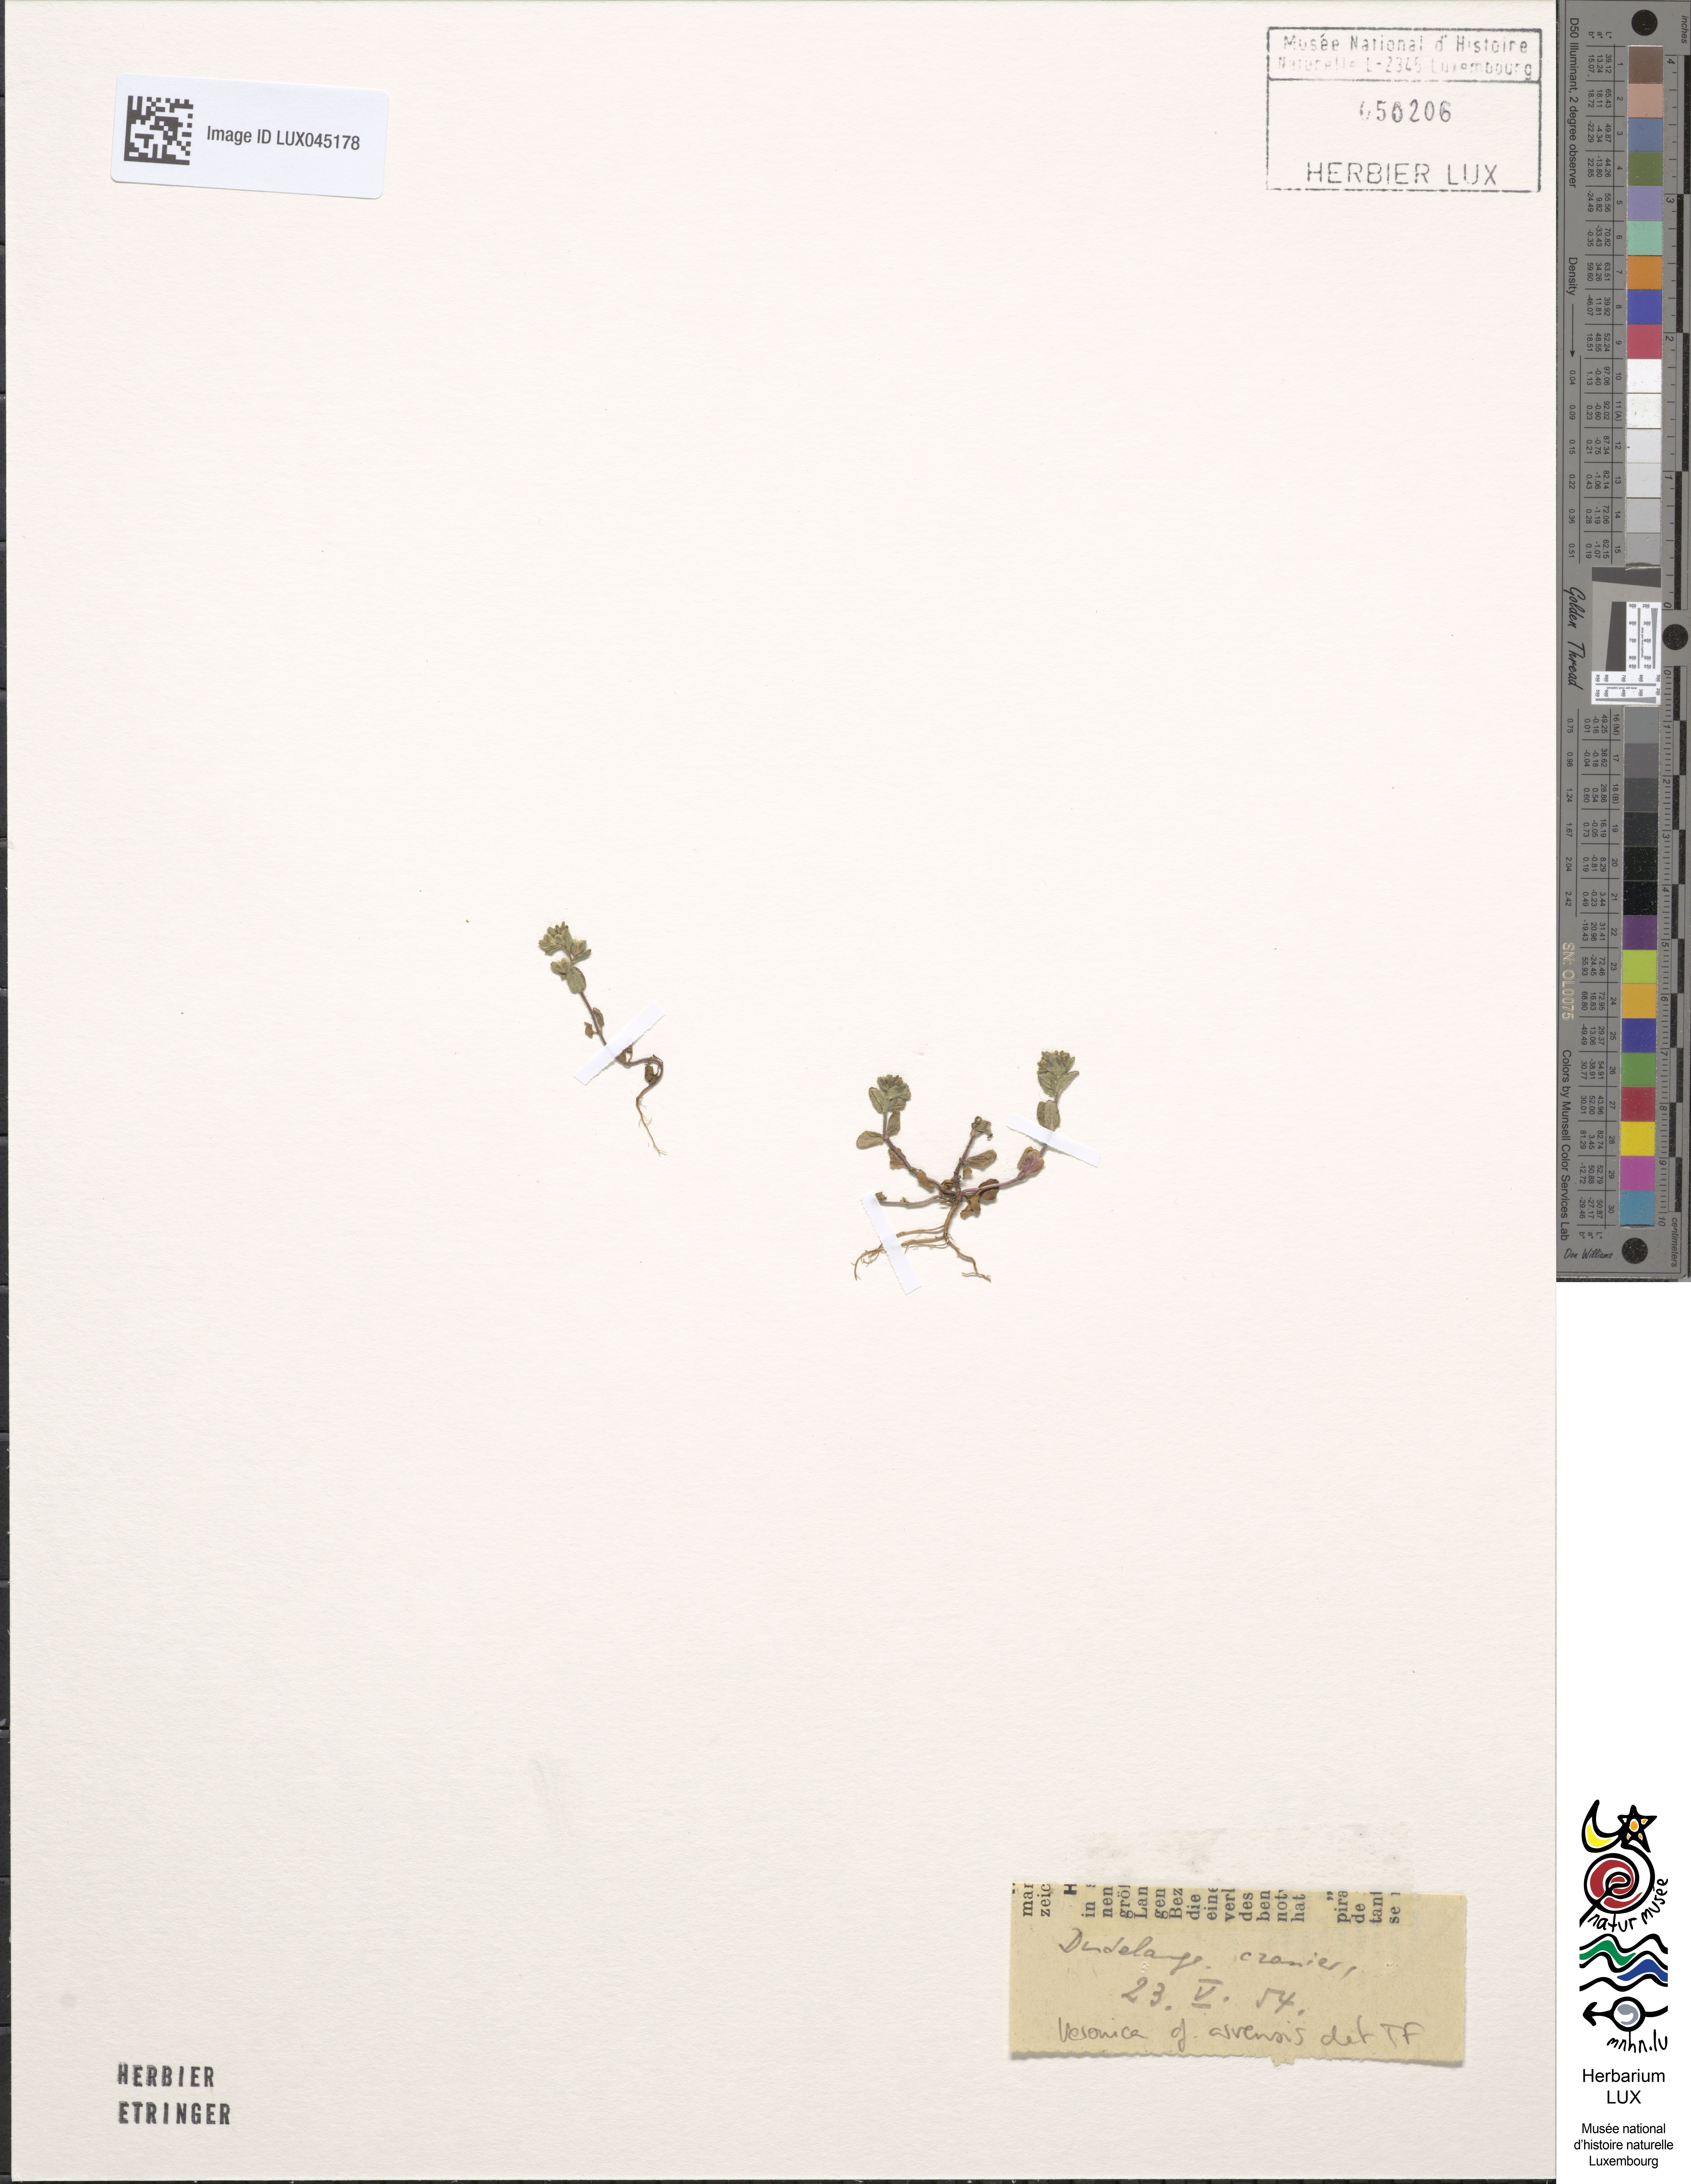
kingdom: Plantae
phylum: Tracheophyta
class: Magnoliopsida
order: Lamiales
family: Plantaginaceae
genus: Veronica
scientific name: Veronica arvensis
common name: Corn speedwell
